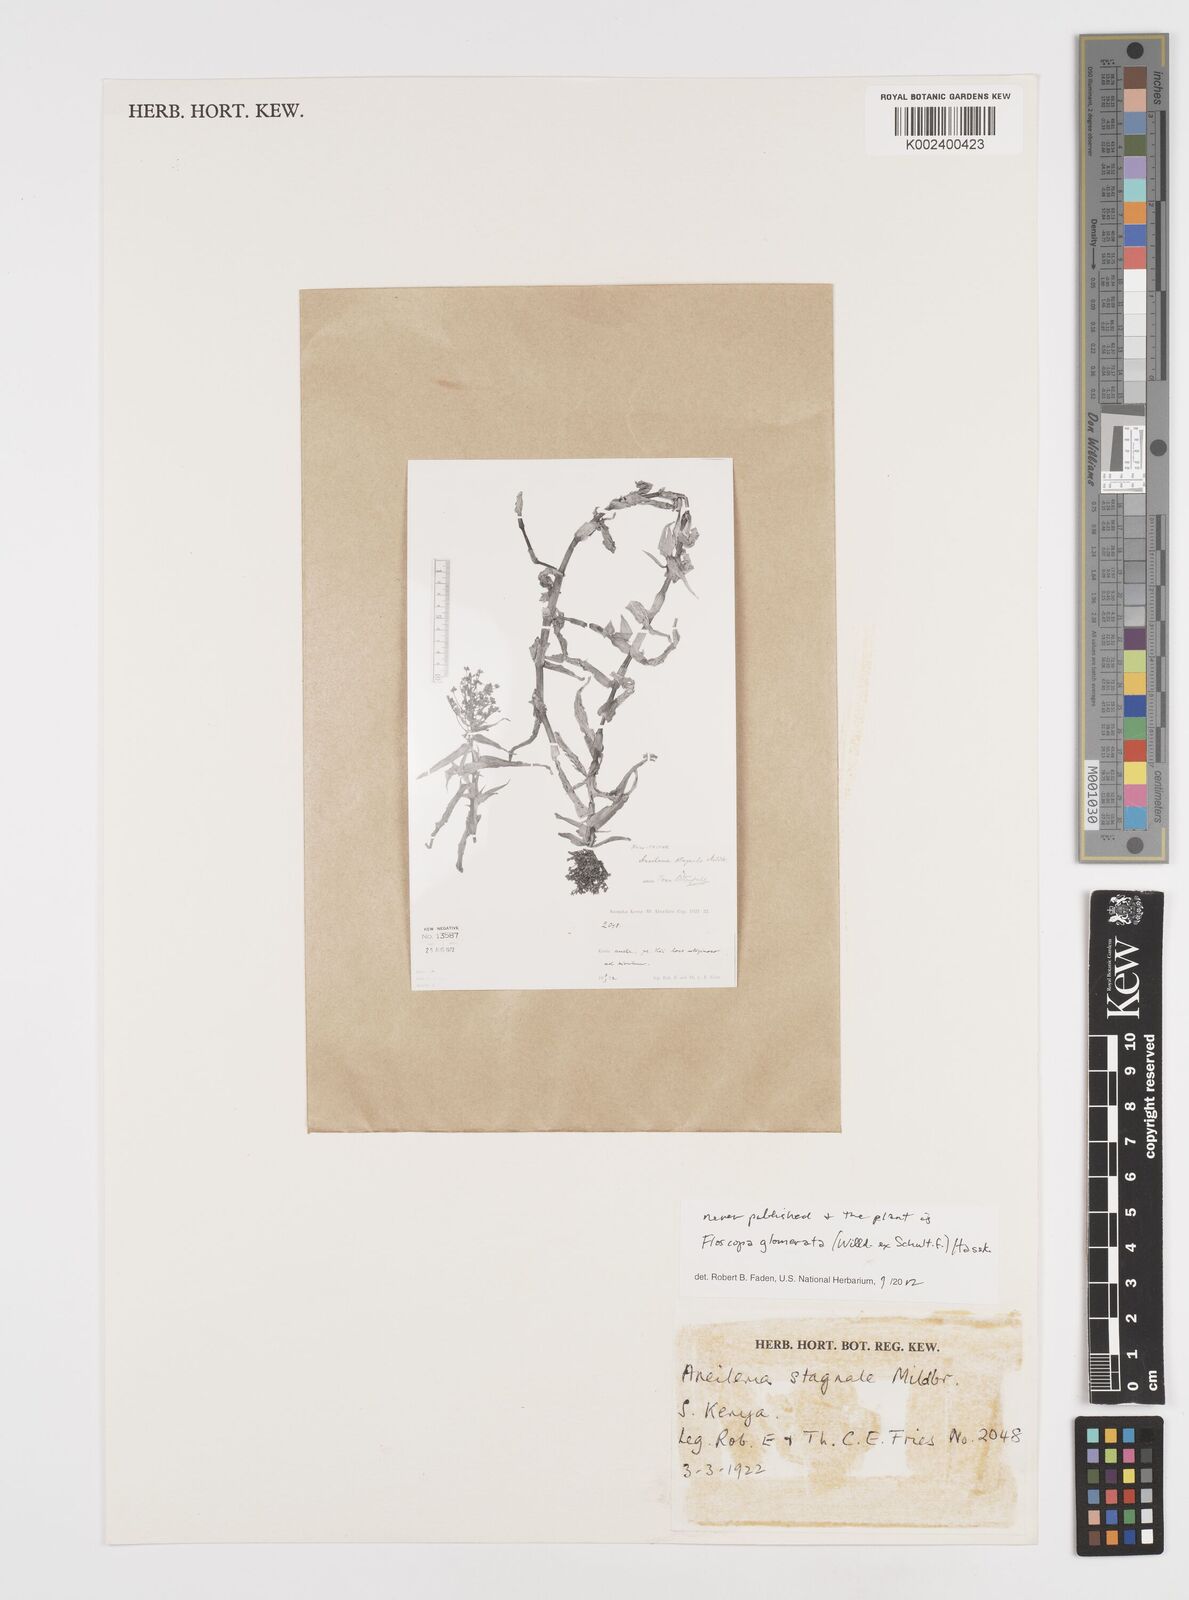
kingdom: Plantae
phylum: Tracheophyta
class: Liliopsida
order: Commelinales
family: Commelinaceae
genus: Floscopa
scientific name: Floscopa glomerata
